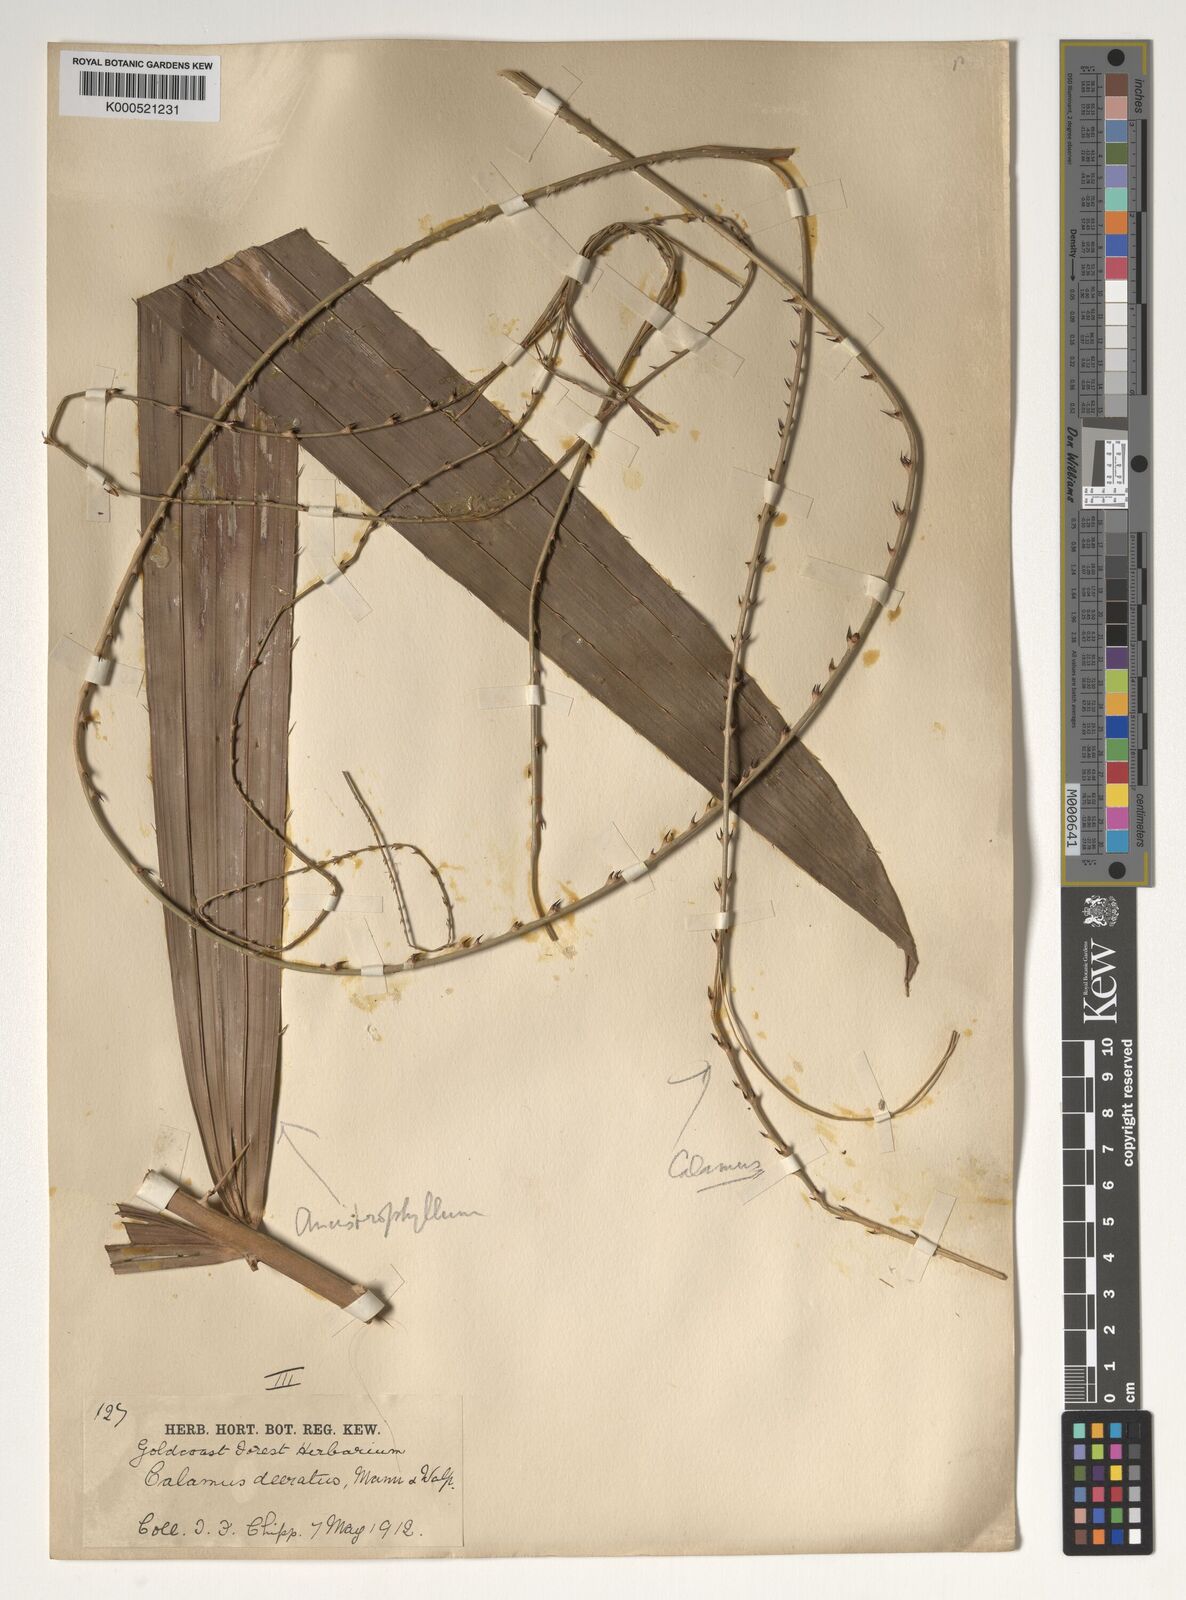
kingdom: Plantae
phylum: Tracheophyta
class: Liliopsida
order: Arecales
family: Arecaceae
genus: Calamus
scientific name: Calamus deerratus
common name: Rattan
